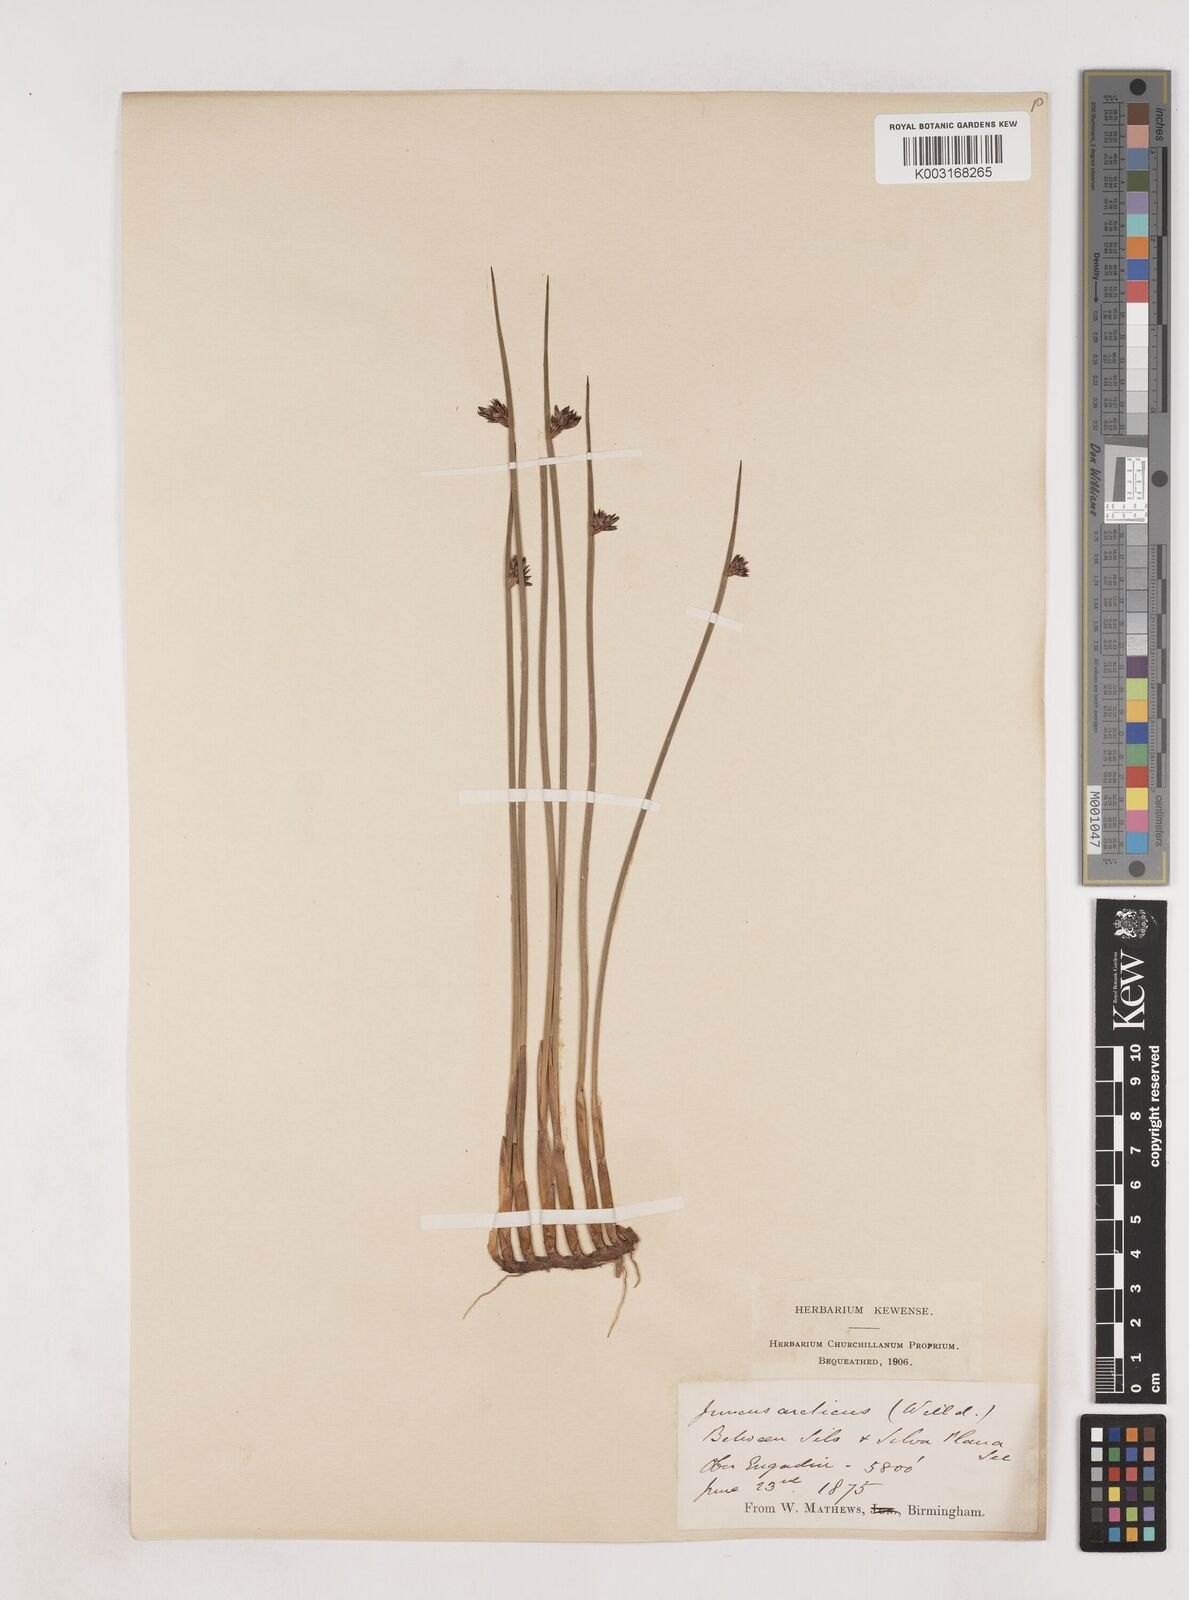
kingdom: Plantae
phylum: Tracheophyta
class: Liliopsida
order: Poales
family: Juncaceae
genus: Juncus
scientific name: Juncus arcticus
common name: Arctic rush
